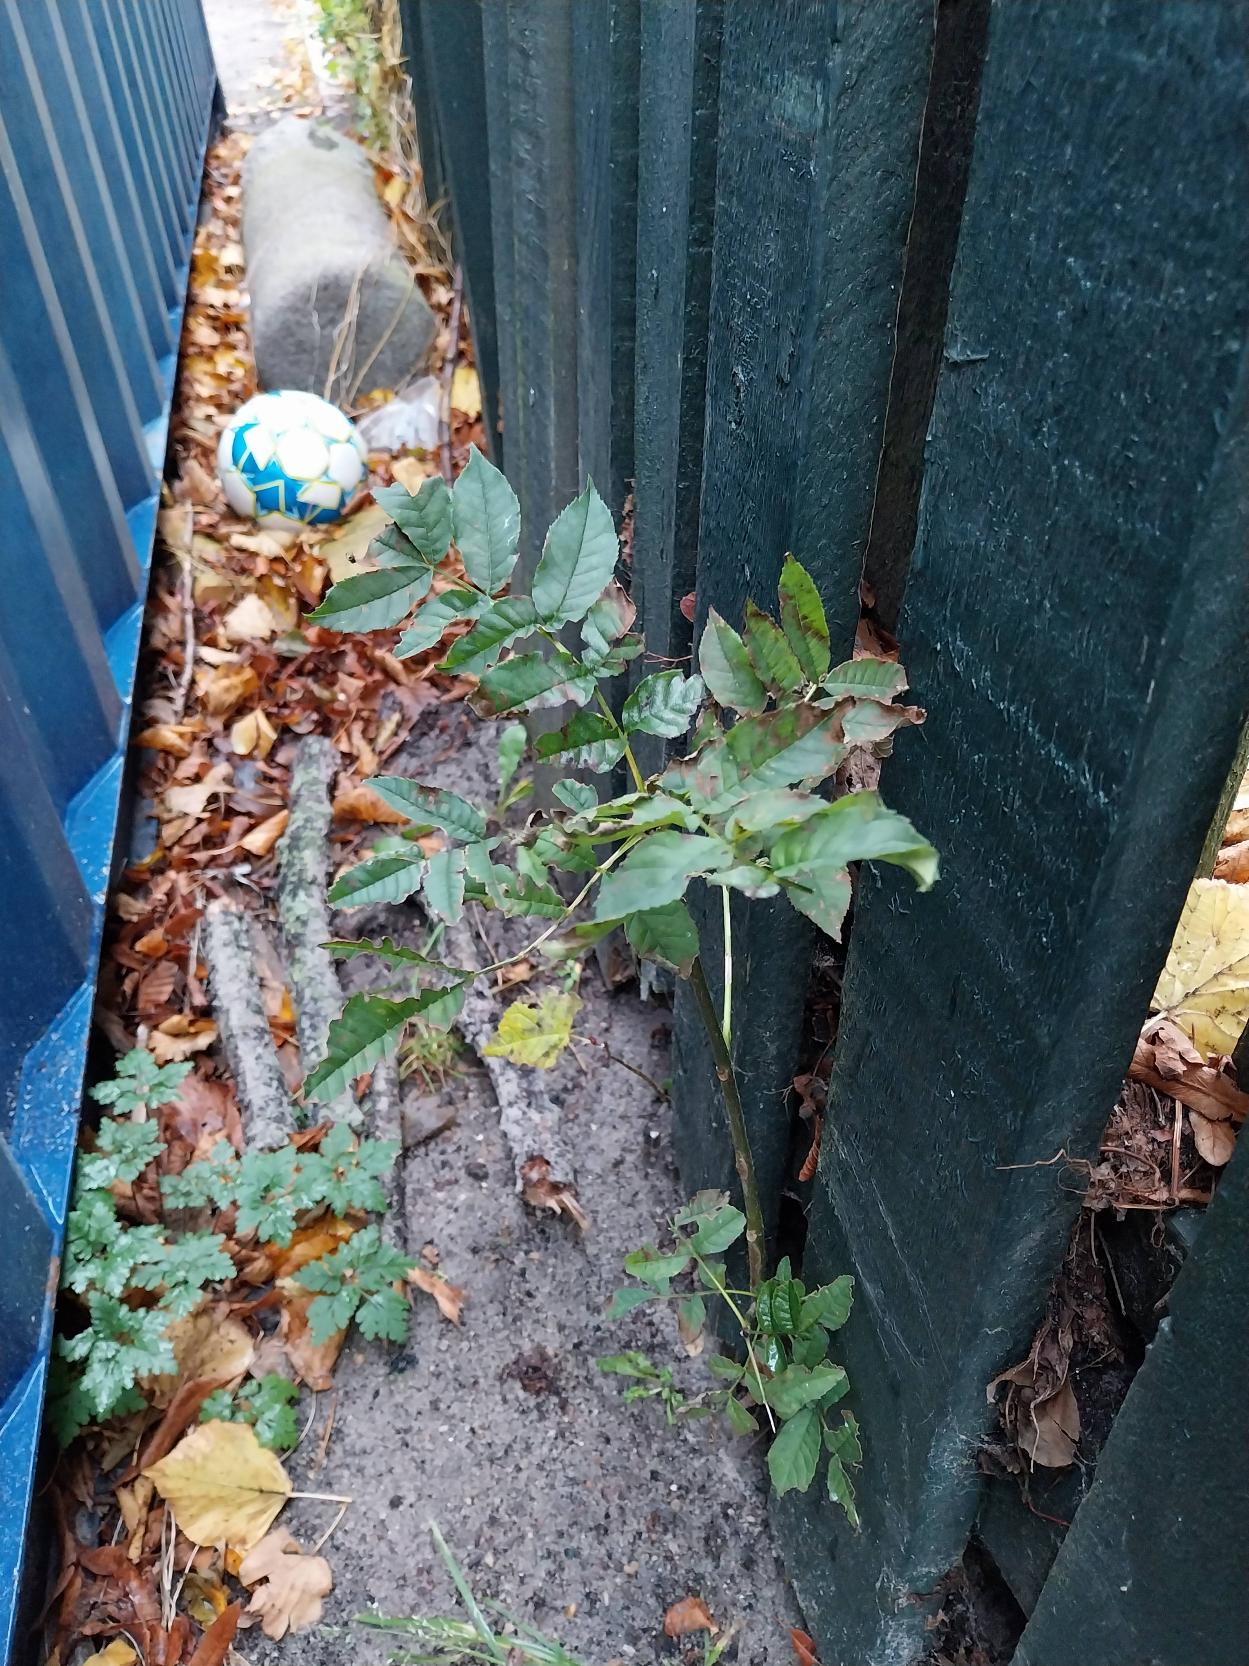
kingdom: Plantae
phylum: Tracheophyta
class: Magnoliopsida
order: Lamiales
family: Oleaceae
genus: Fraxinus
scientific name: Fraxinus excelsior
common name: Ask
